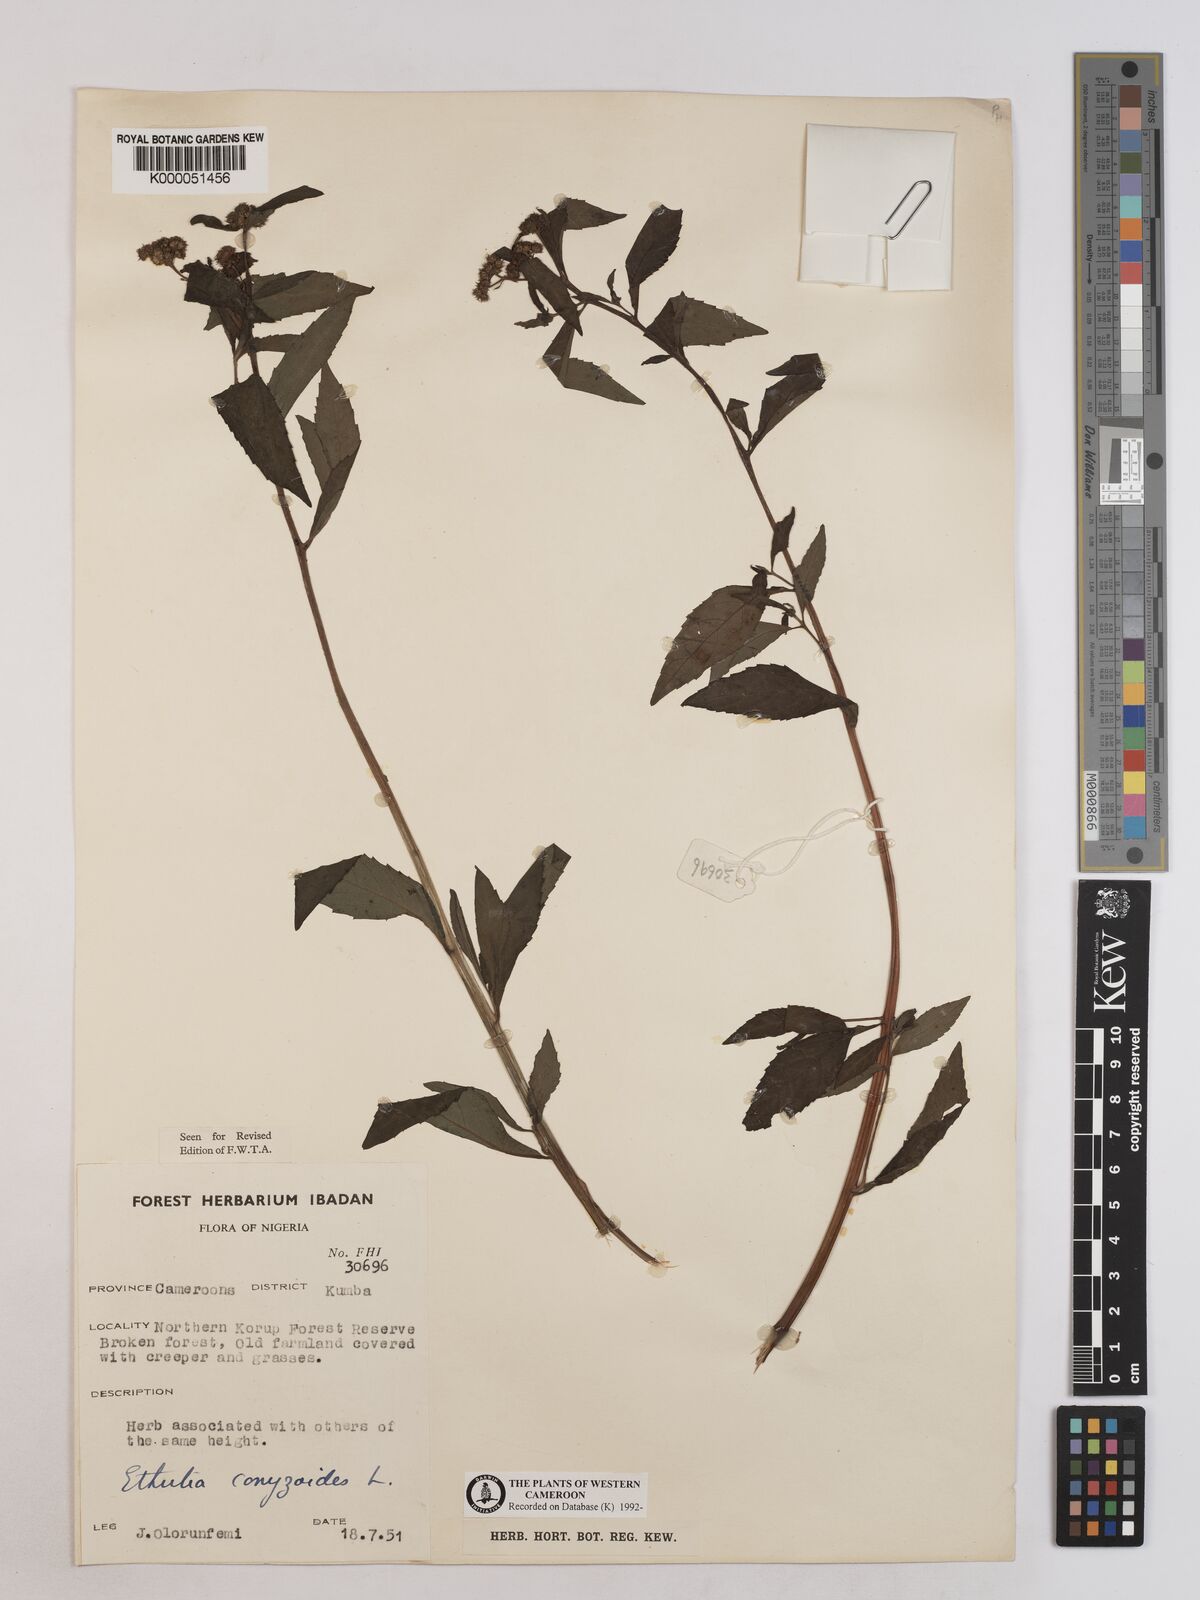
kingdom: Plantae
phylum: Tracheophyta
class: Magnoliopsida
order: Asterales
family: Asteraceae
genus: Ethulia
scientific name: Ethulia conyzoides
